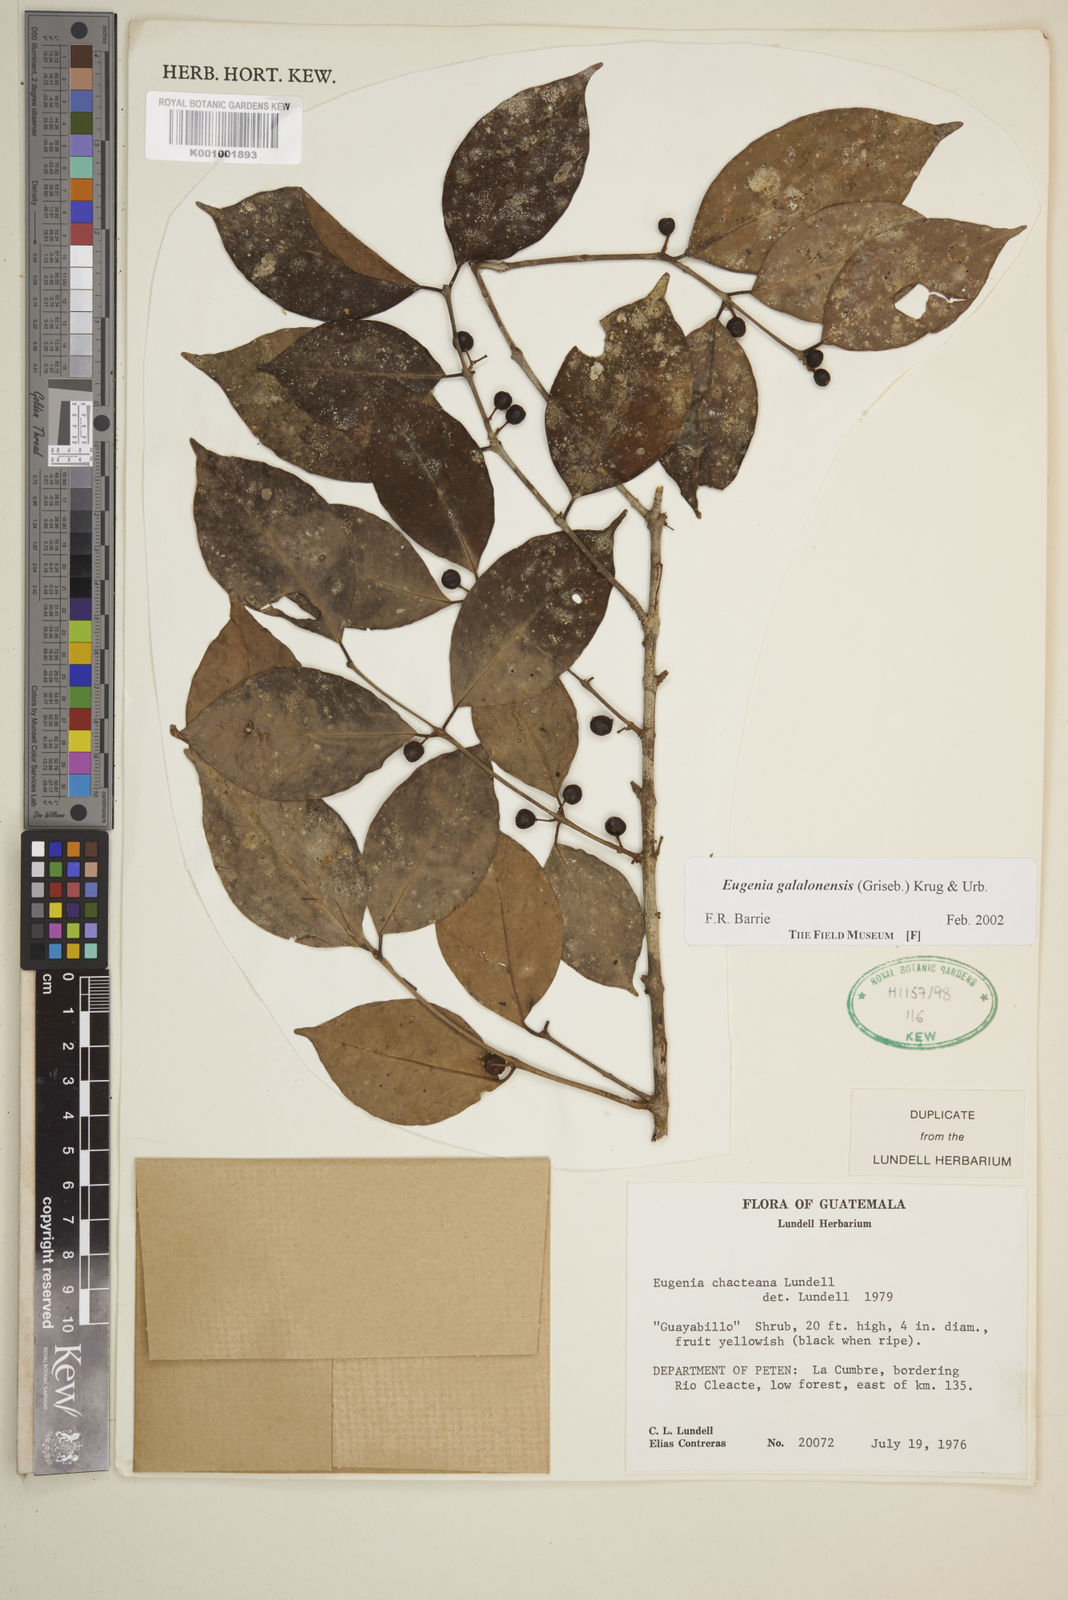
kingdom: Plantae
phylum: Tracheophyta
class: Magnoliopsida
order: Myrtales
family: Myrtaceae
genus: Eugenia
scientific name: Eugenia galalonensis
